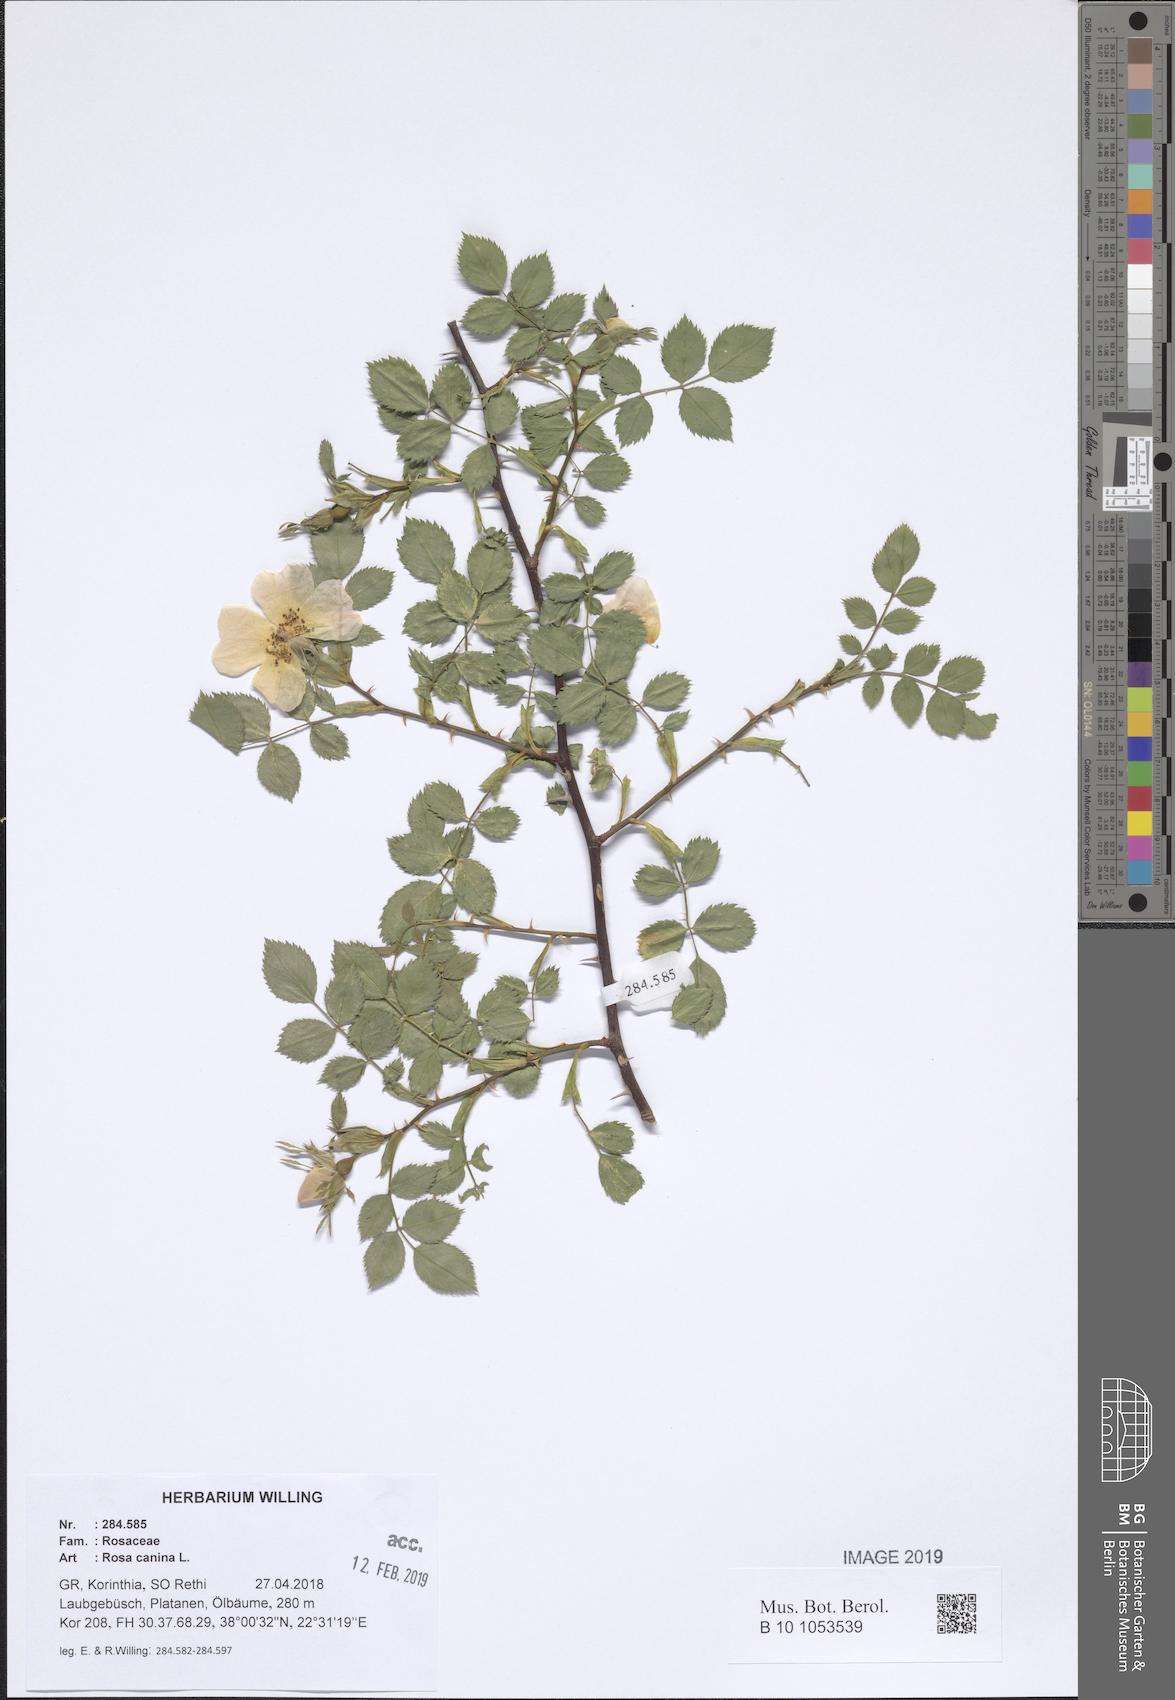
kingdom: Plantae
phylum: Tracheophyta
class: Magnoliopsida
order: Rosales
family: Rosaceae
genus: Rosa
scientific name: Rosa canina
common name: Dog rose
